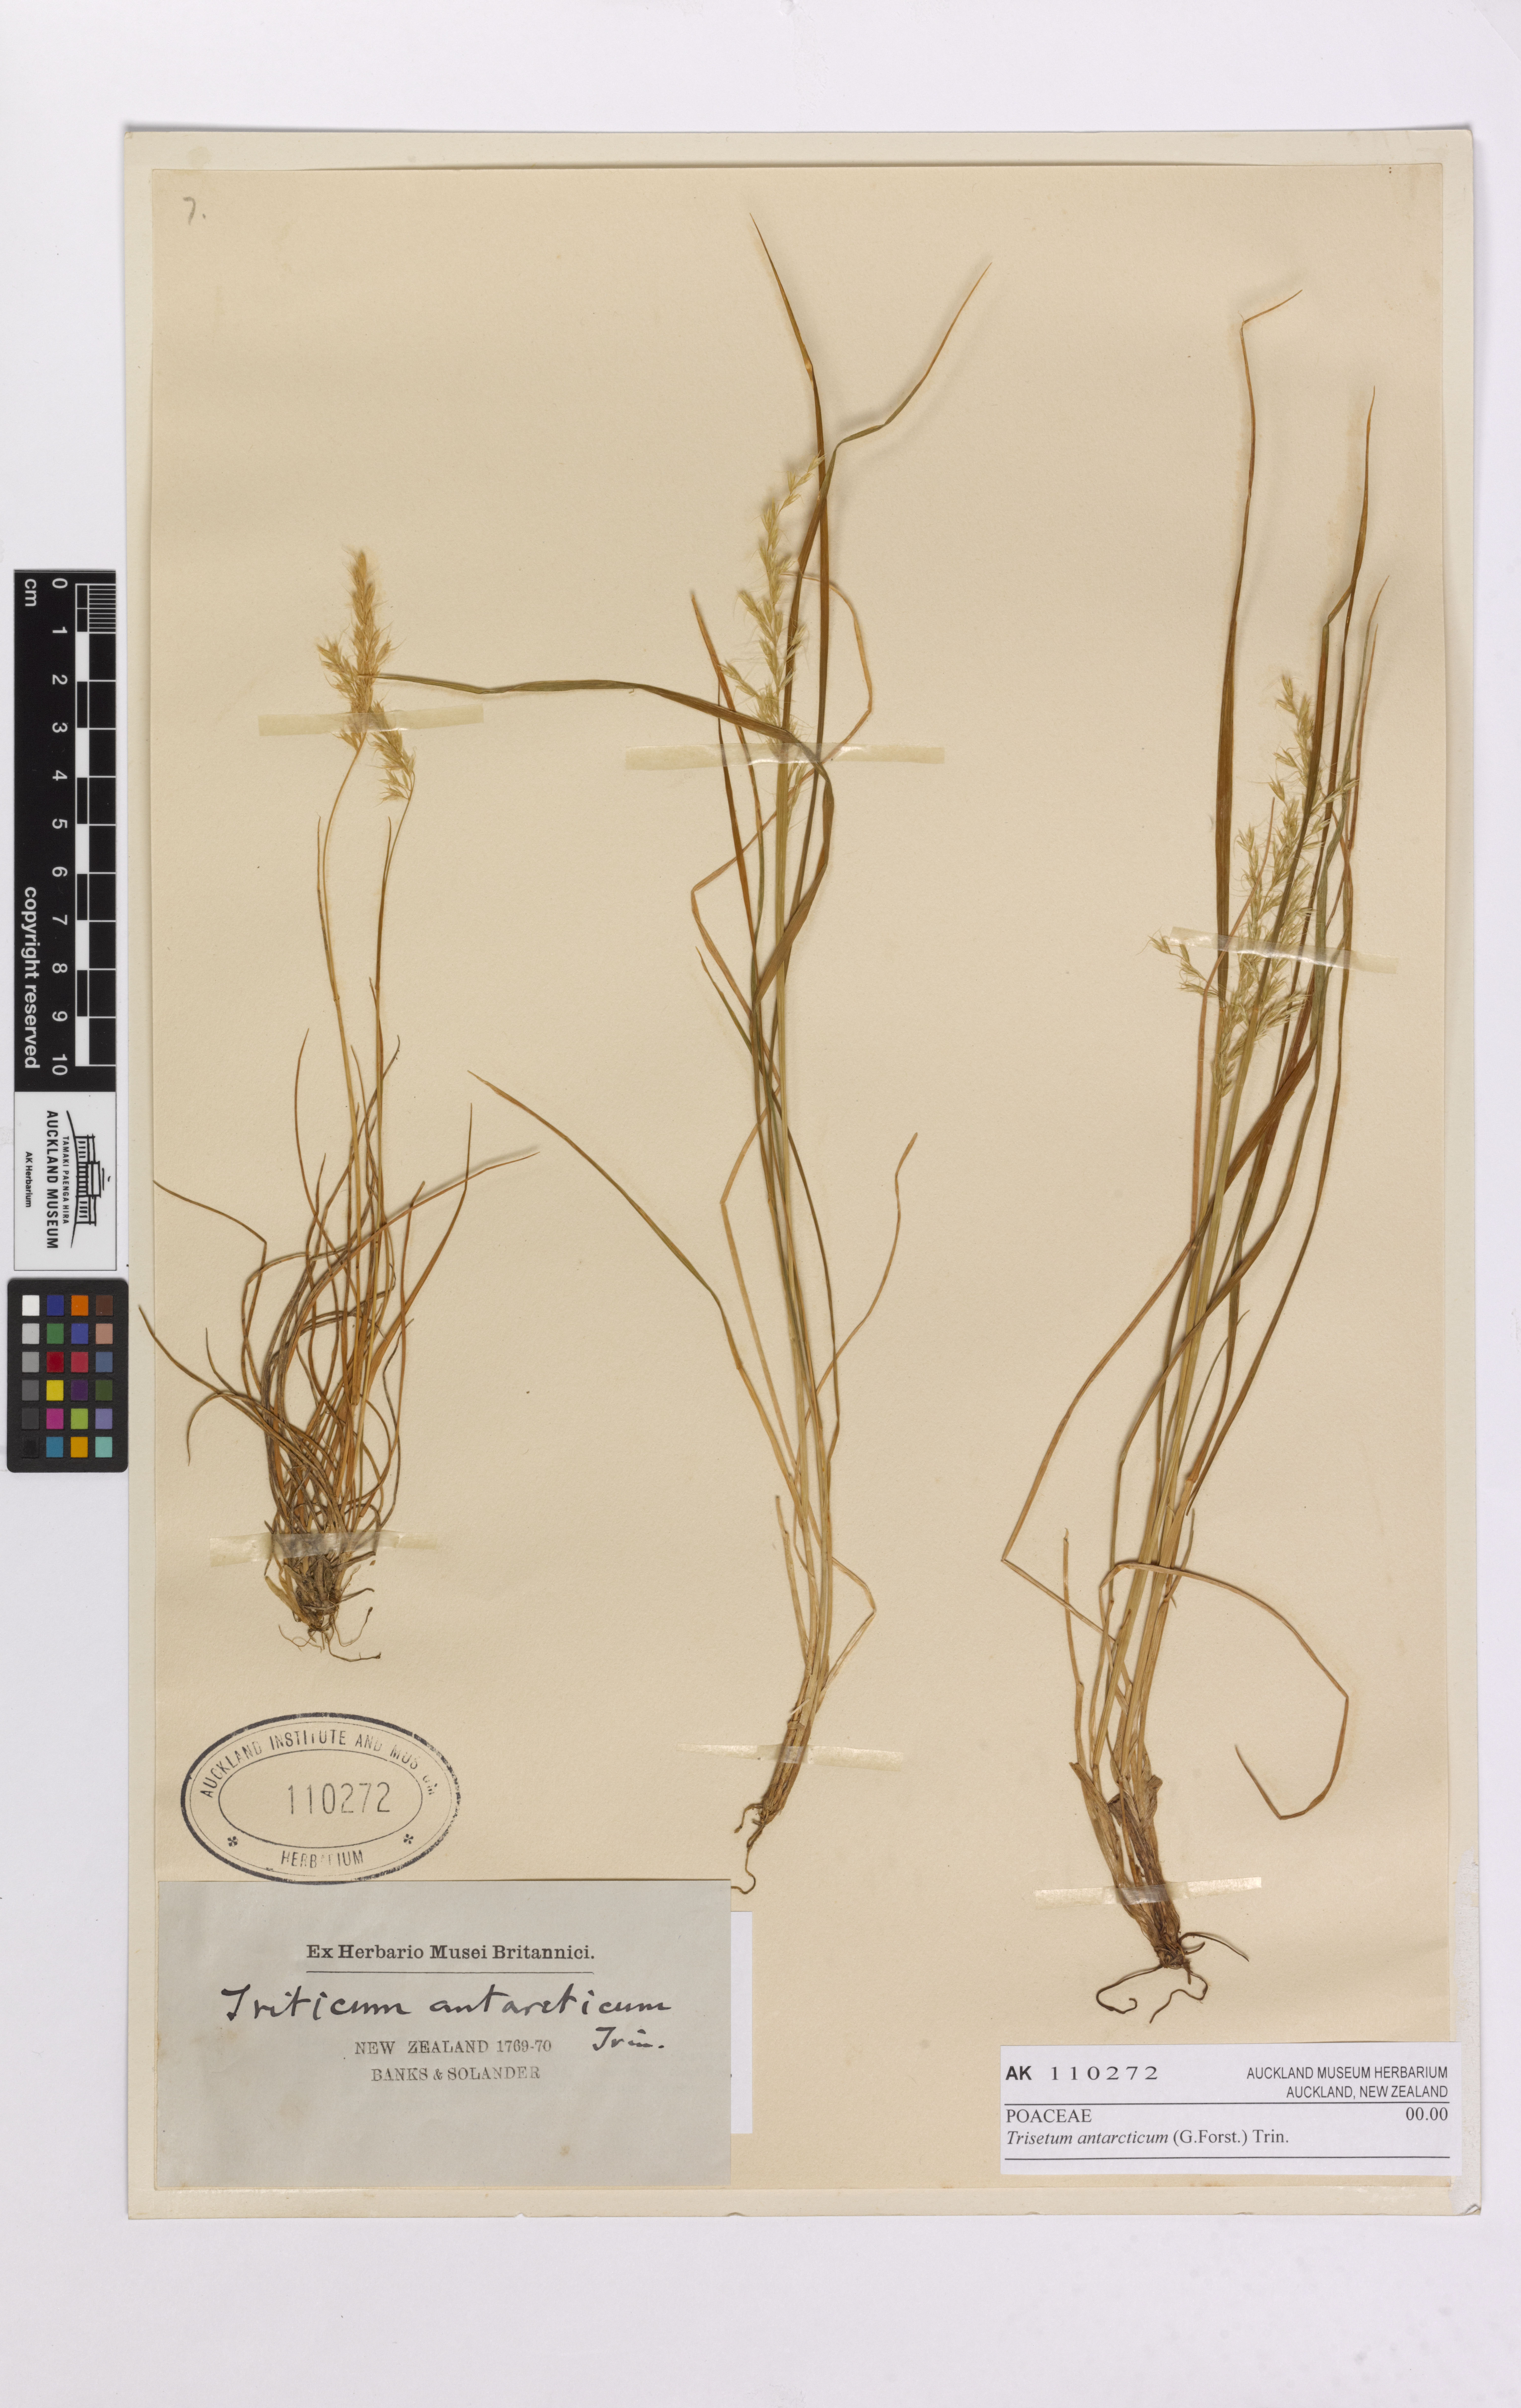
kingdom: Plantae
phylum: Tracheophyta
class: Liliopsida
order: Poales
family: Poaceae
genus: Koeleria
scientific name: Koeleria arduana
